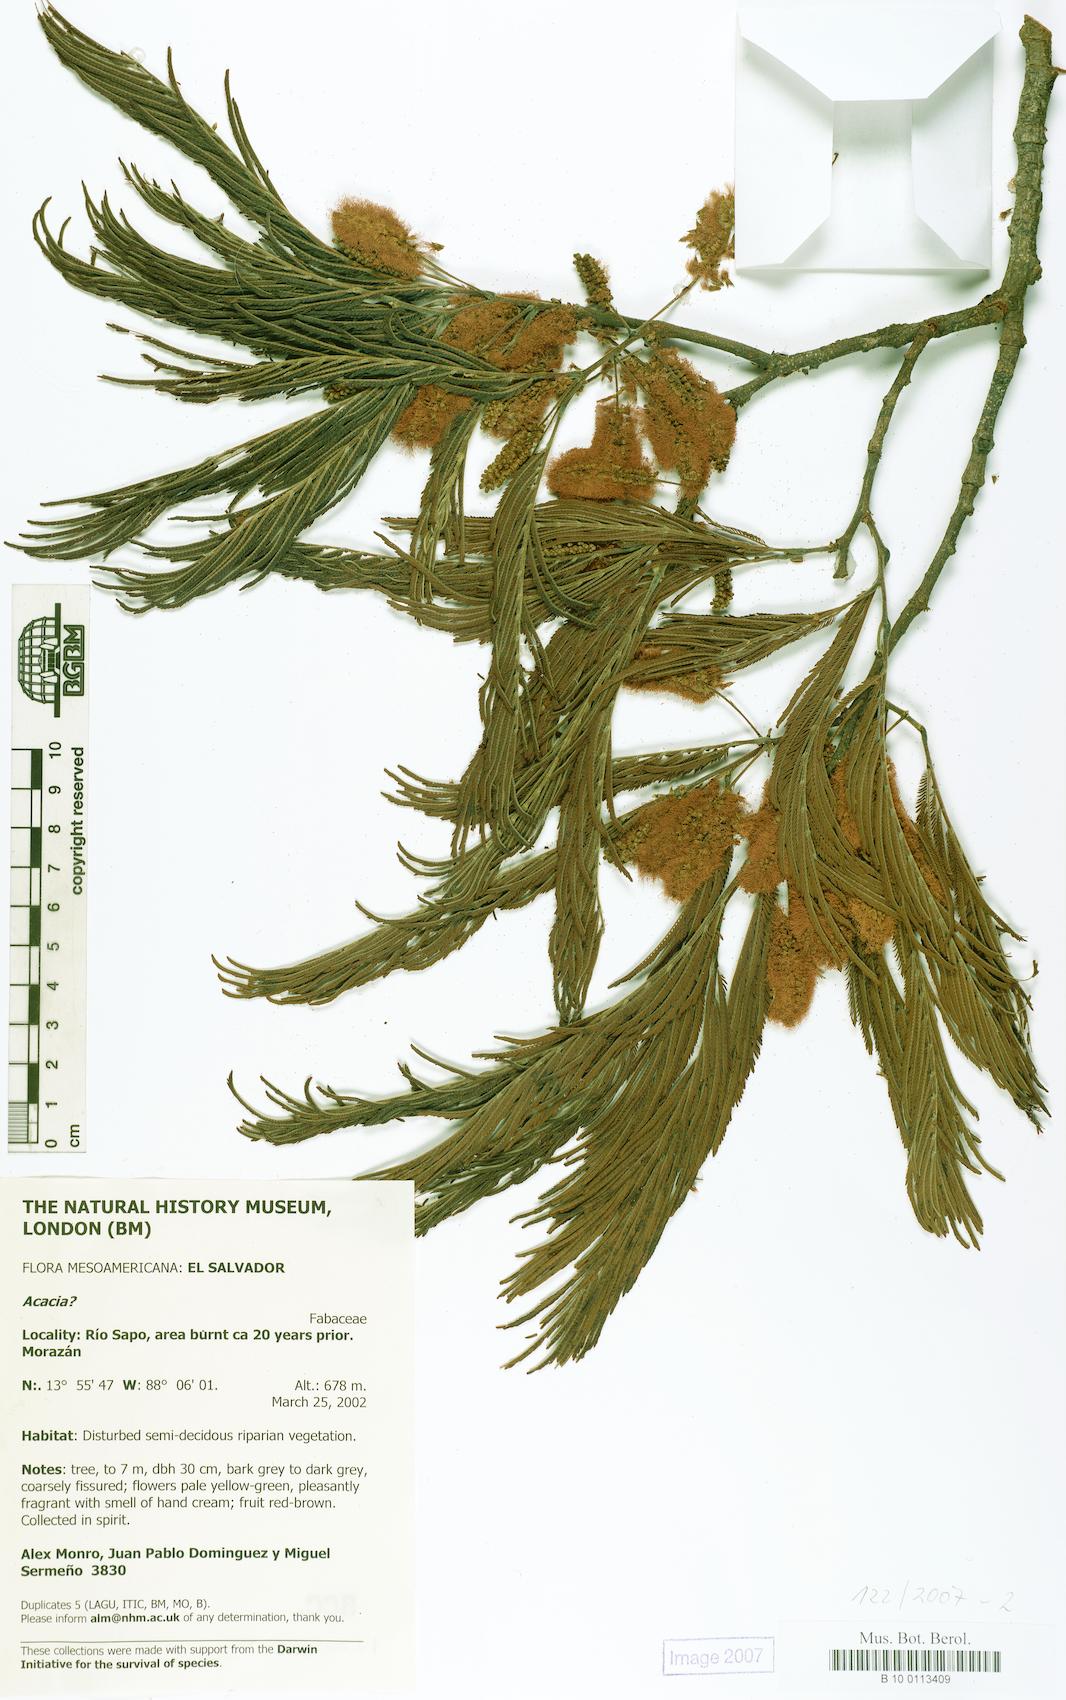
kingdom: Plantae
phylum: Tracheophyta
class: Magnoliopsida
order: Fabales
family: Fabaceae
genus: Acacia
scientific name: Acacia
